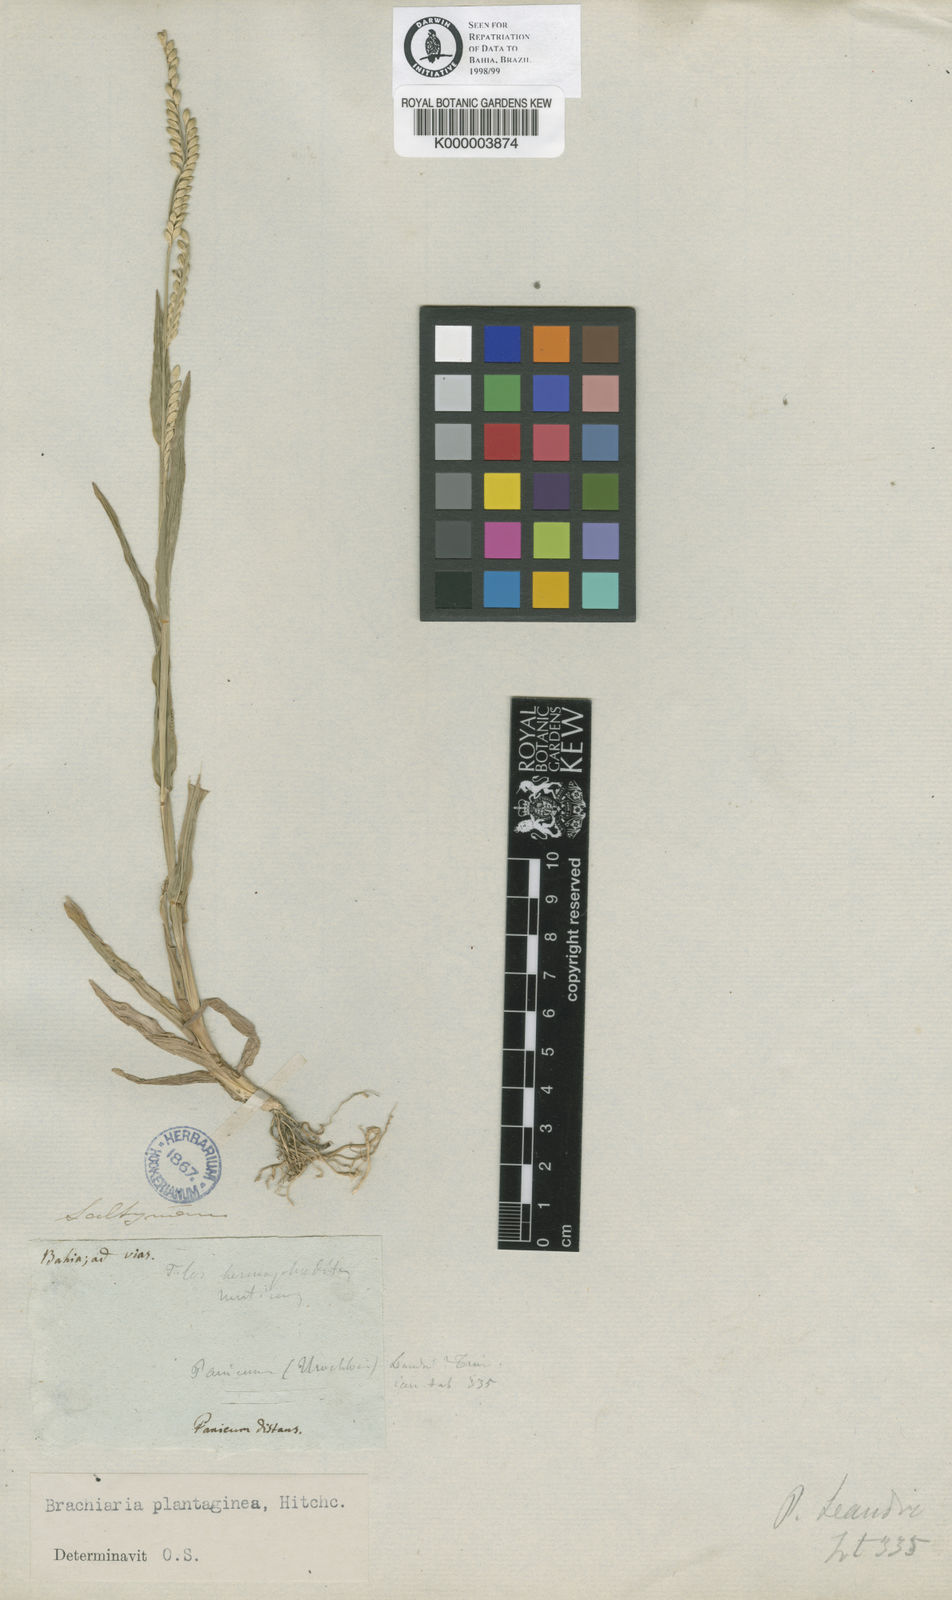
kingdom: Plantae
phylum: Tracheophyta
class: Liliopsida
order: Poales
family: Poaceae
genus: Urochloa
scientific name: Urochloa plantaginea
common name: Plantain signalgrass
